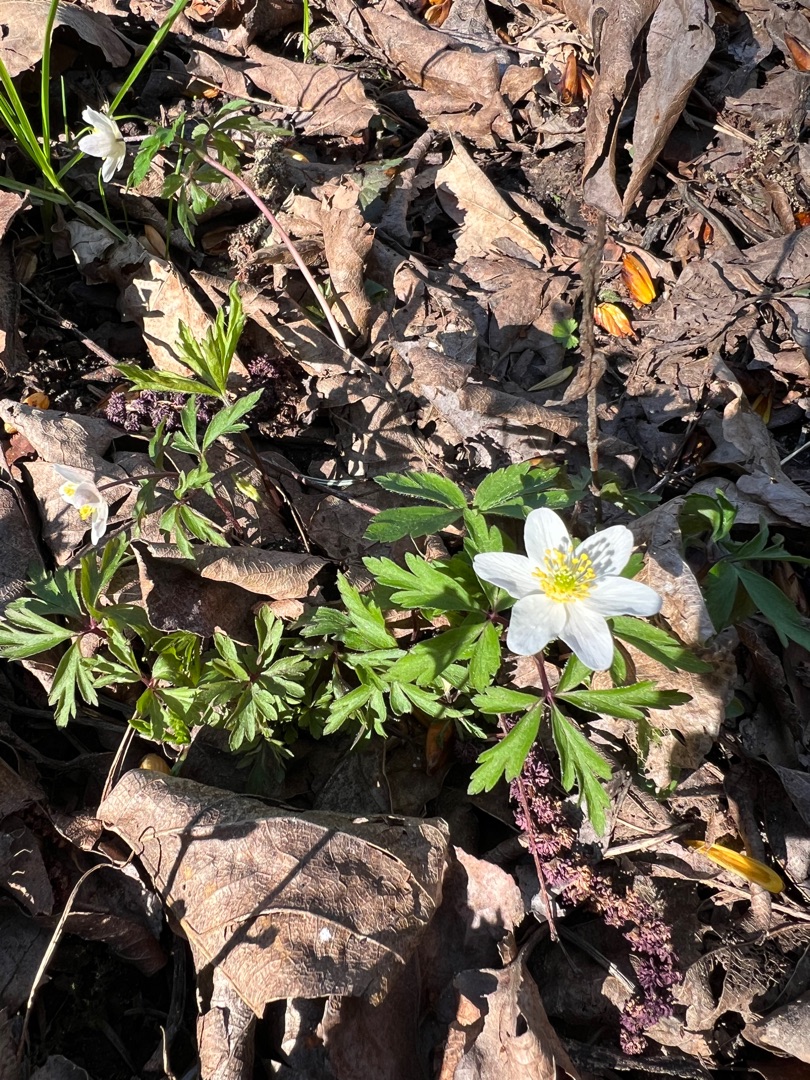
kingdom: Plantae
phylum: Tracheophyta
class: Magnoliopsida
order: Ranunculales
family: Ranunculaceae
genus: Anemone
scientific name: Anemone nemorosa
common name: Hvid anemone
